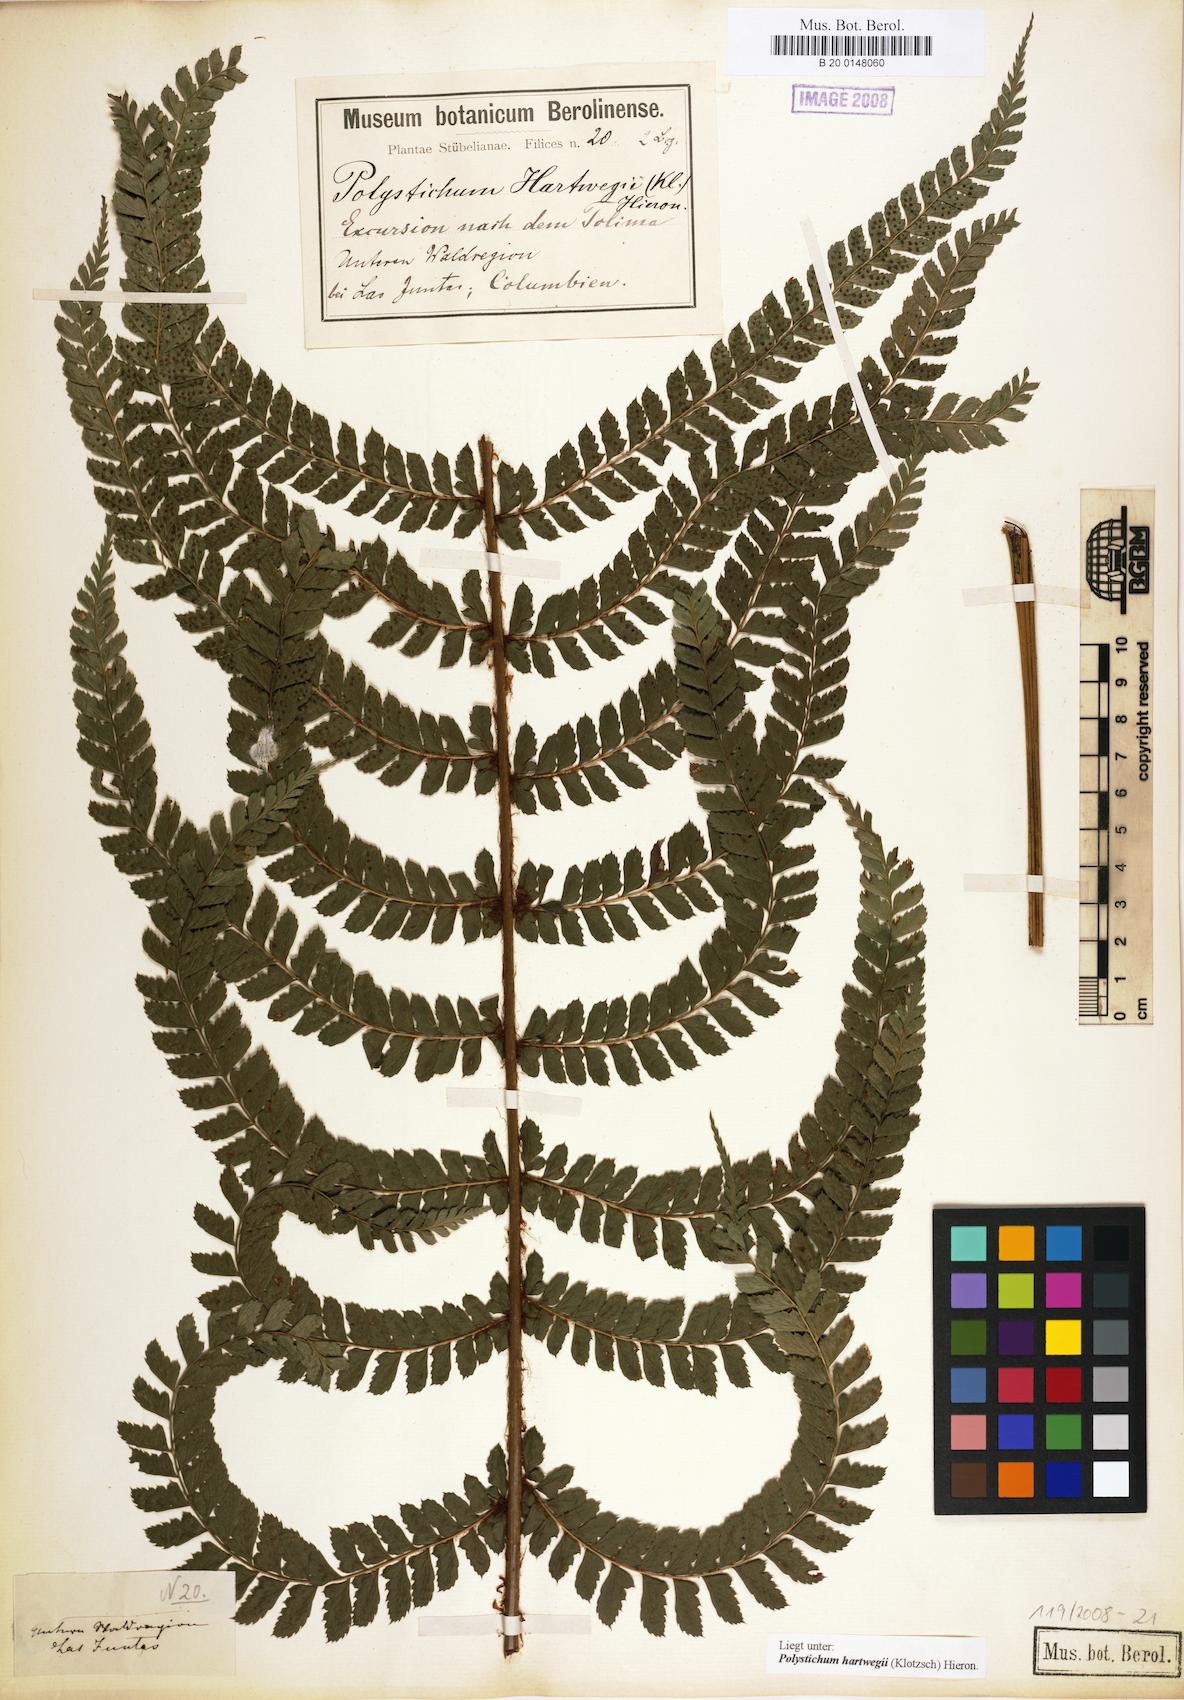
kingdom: Plantae
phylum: Tracheophyta
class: Polypodiopsida
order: Polypodiales
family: Dryopteridaceae
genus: Polystichum
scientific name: Polystichum hartwegii
